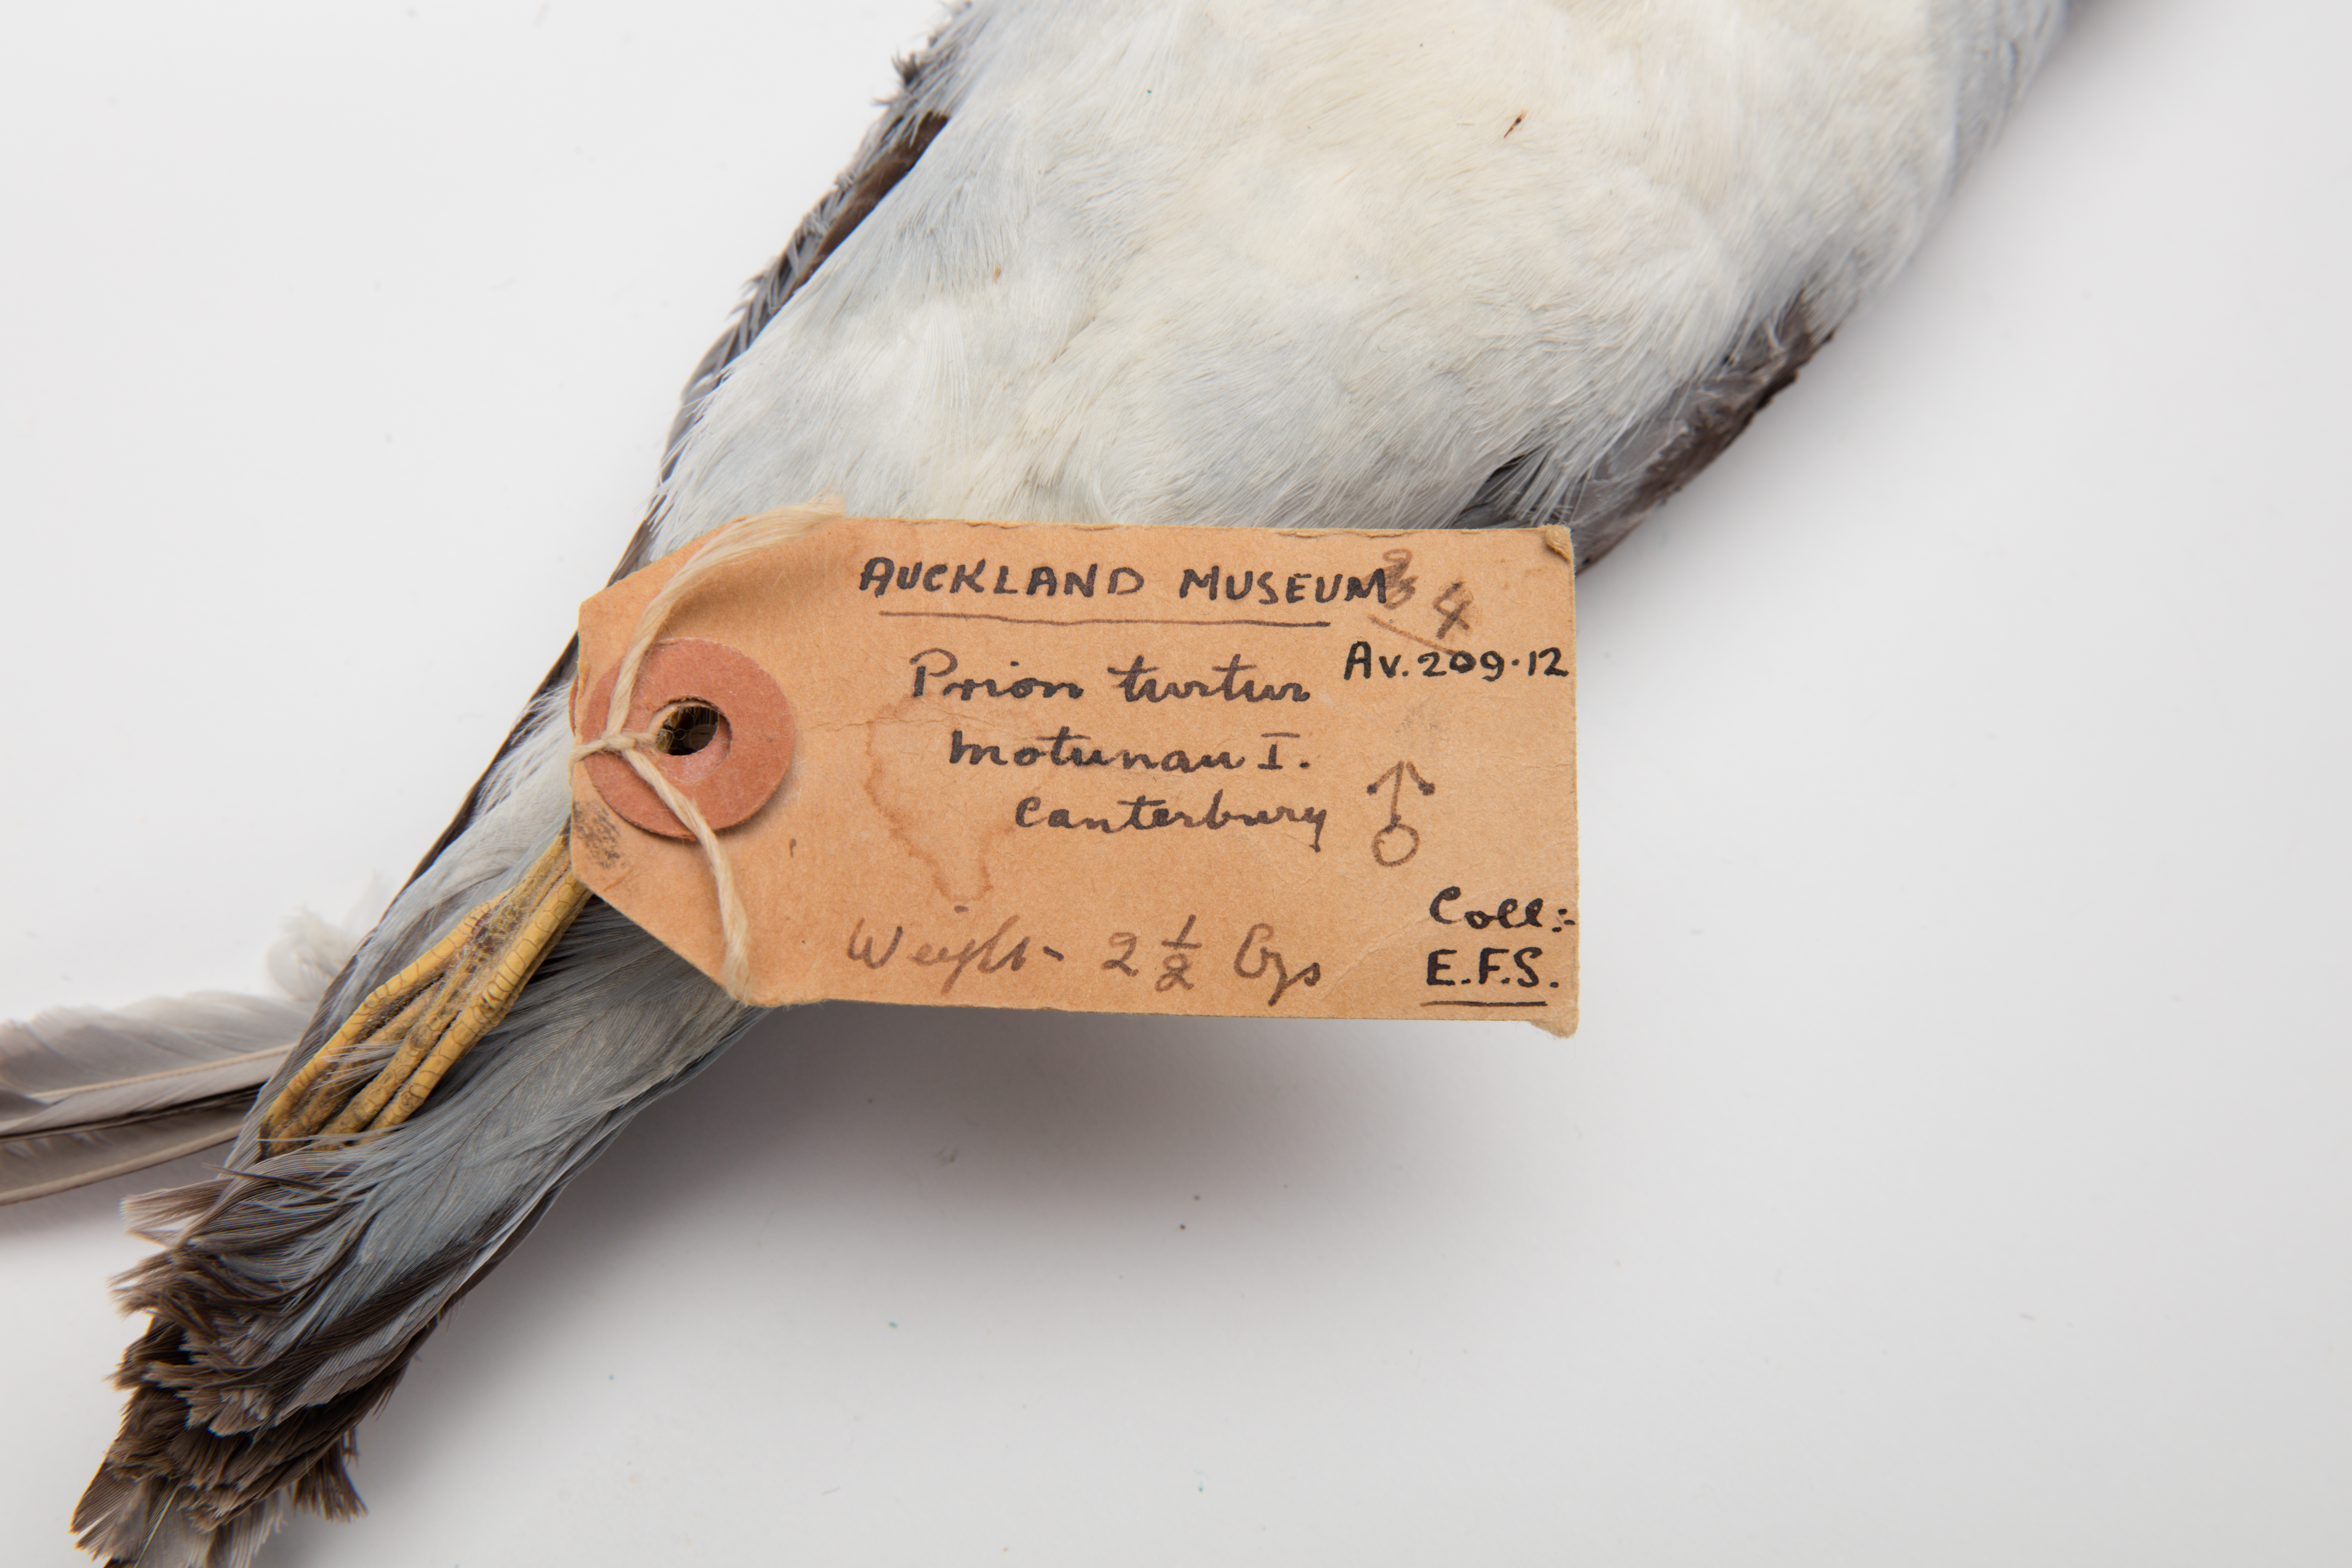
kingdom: Animalia
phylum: Chordata
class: Aves
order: Procellariiformes
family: Procellariidae
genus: Pachyptila
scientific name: Pachyptila turtur
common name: Fairy prion
